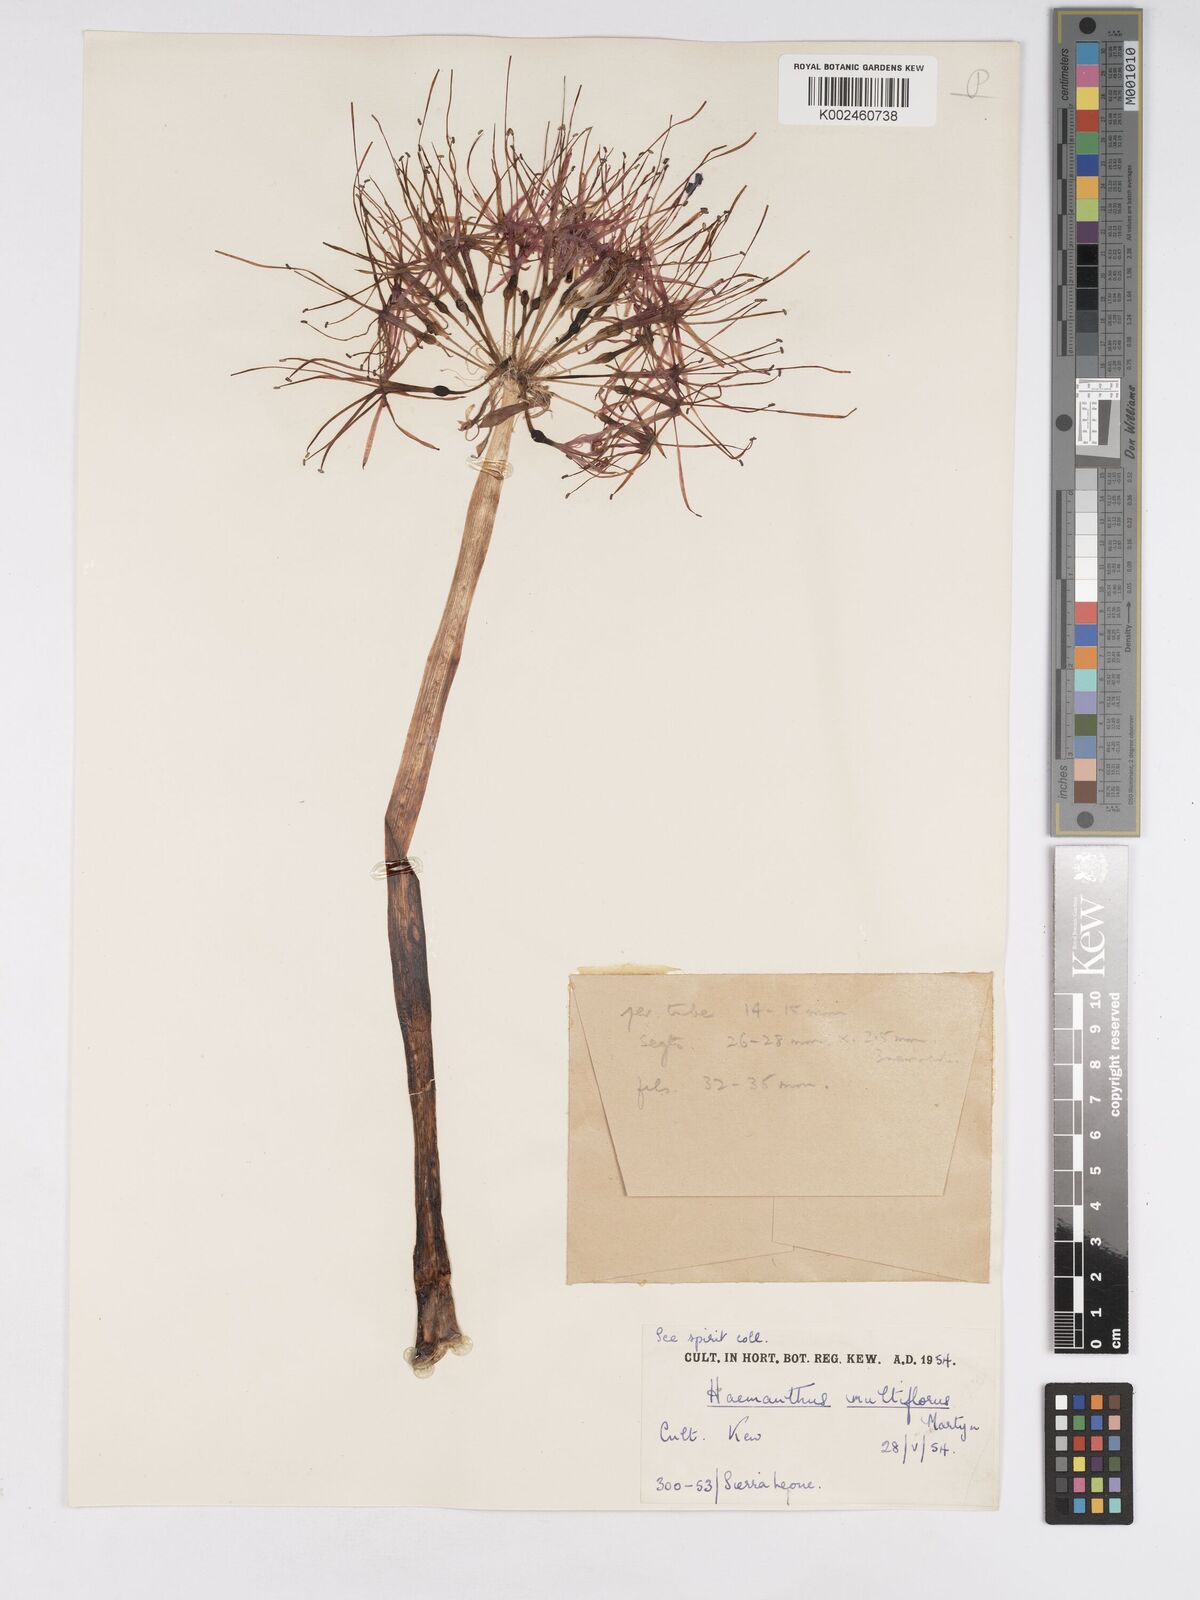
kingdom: Plantae
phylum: Tracheophyta
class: Liliopsida
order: Asparagales
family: Amaryllidaceae
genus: Scadoxus
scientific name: Scadoxus multiflorus
